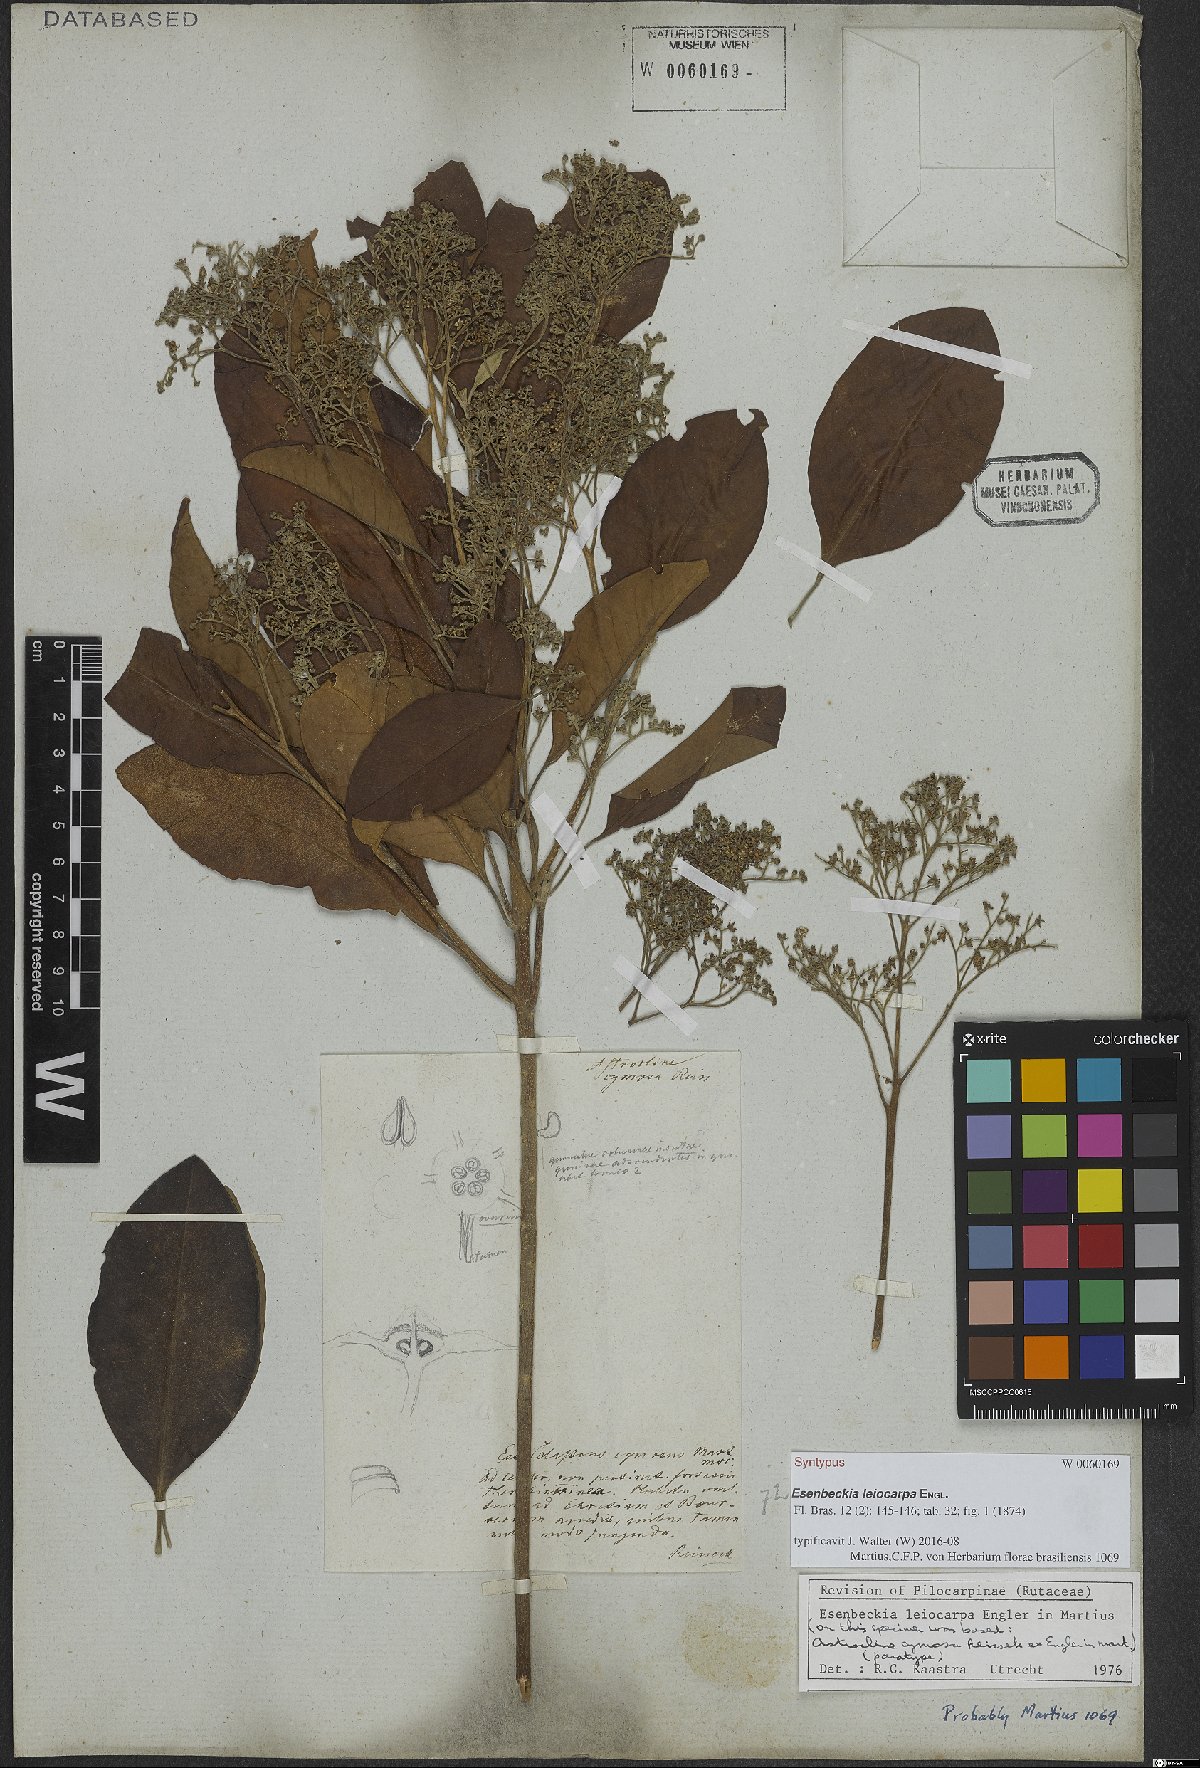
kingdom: Plantae
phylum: Tracheophyta
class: Magnoliopsida
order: Sapindales
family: Rutaceae
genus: Esenbeckia
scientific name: Esenbeckia leiocarpa
